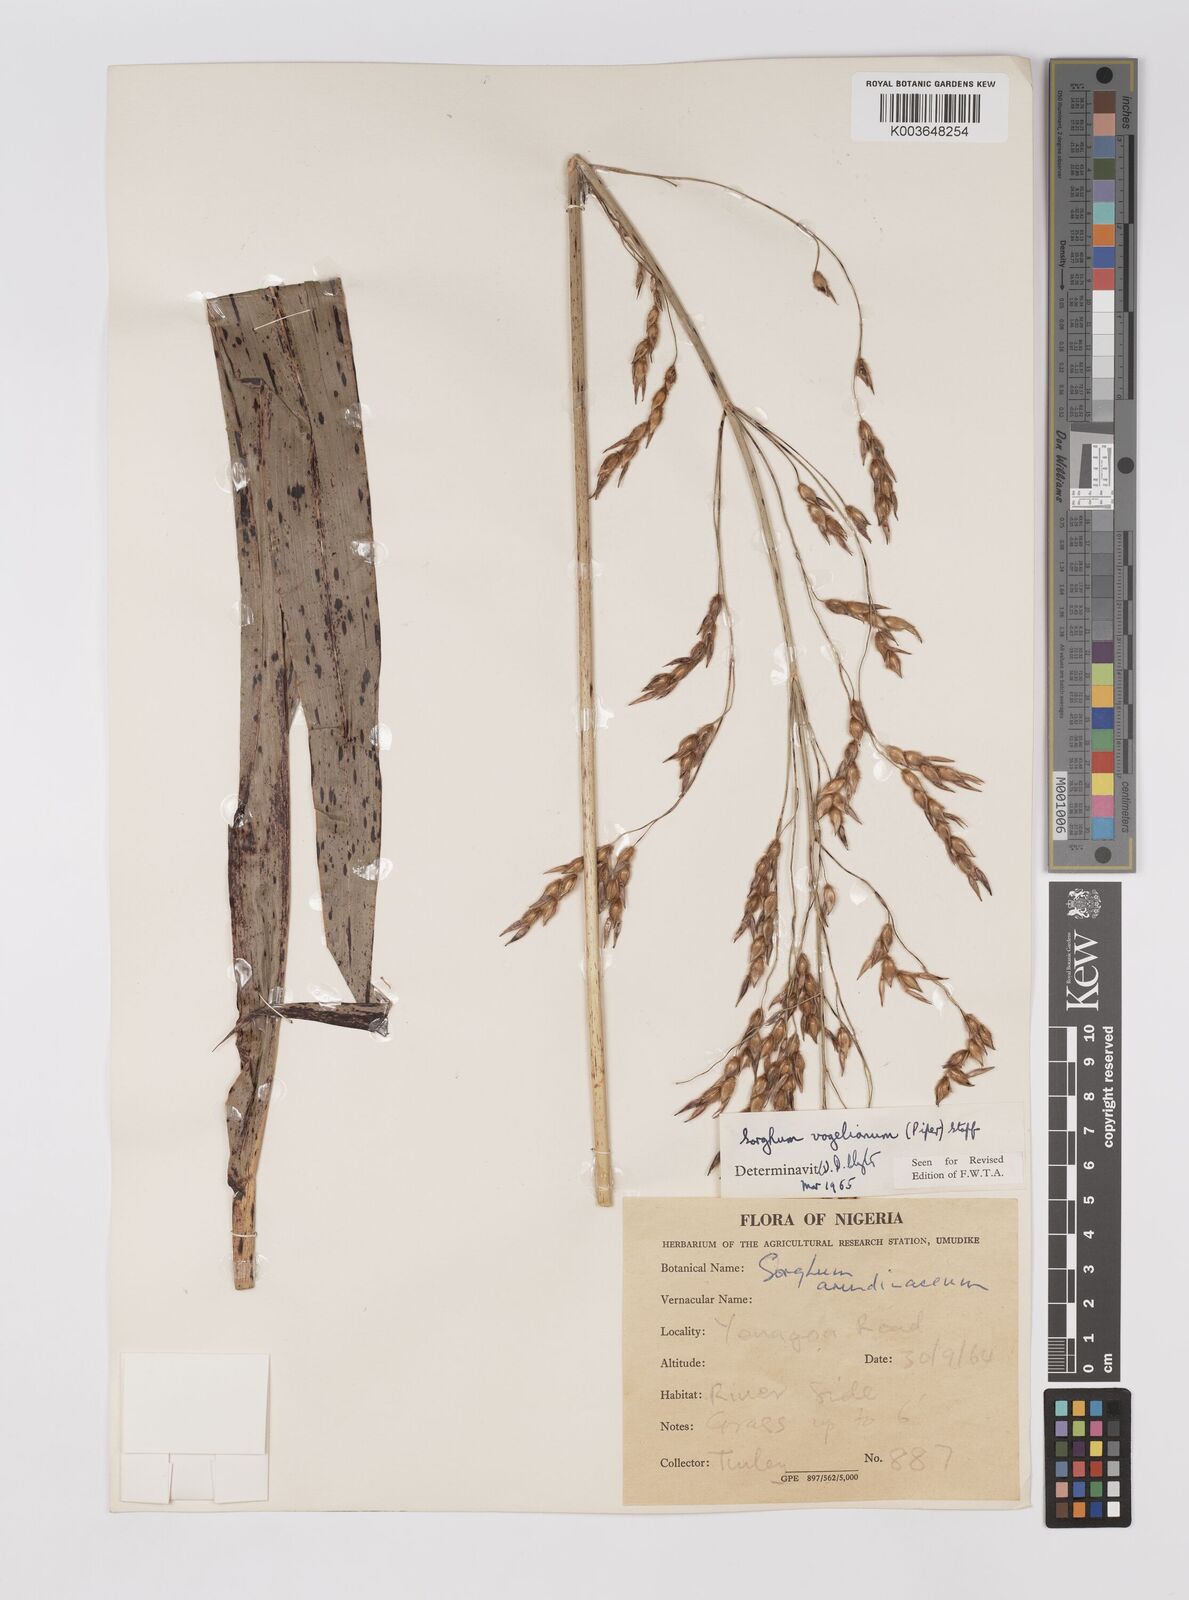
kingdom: Plantae
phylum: Tracheophyta
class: Liliopsida
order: Poales
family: Poaceae
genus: Sorghum
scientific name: Sorghum arundinaceum
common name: Sorghum
